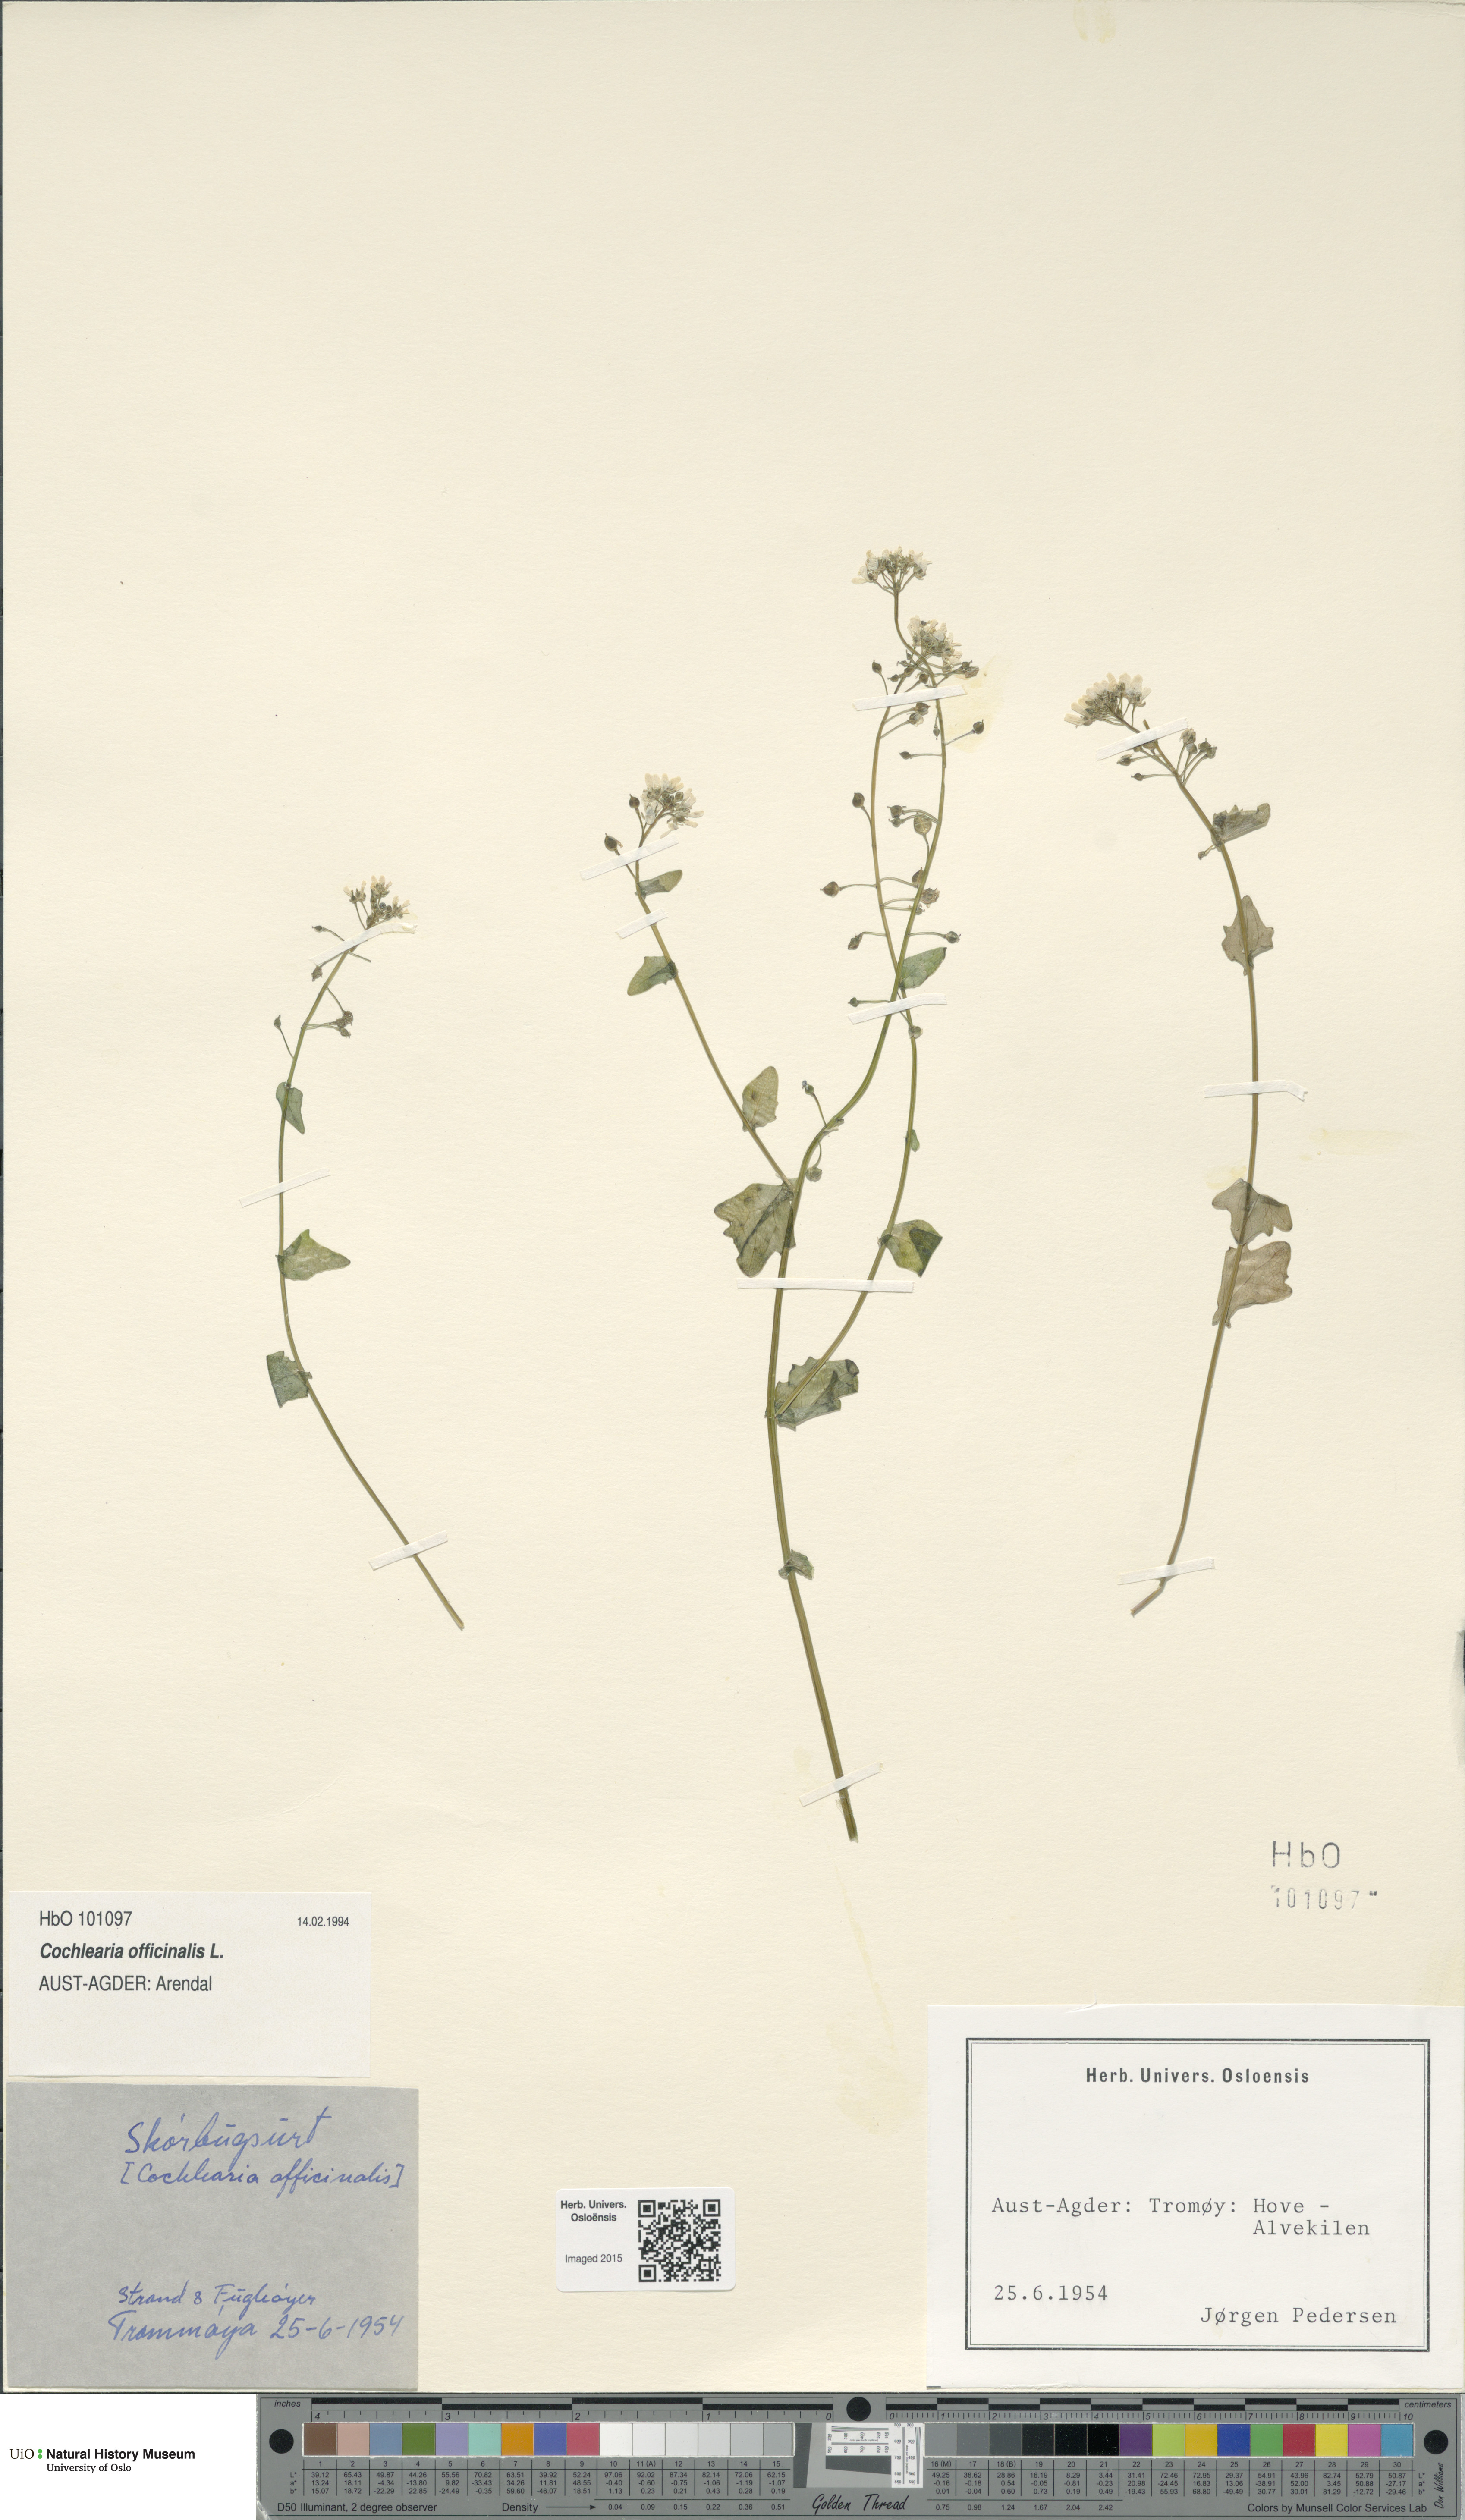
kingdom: Plantae
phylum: Tracheophyta
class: Magnoliopsida
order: Brassicales
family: Brassicaceae
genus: Cochlearia
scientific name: Cochlearia officinalis
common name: Scurvy-grass
